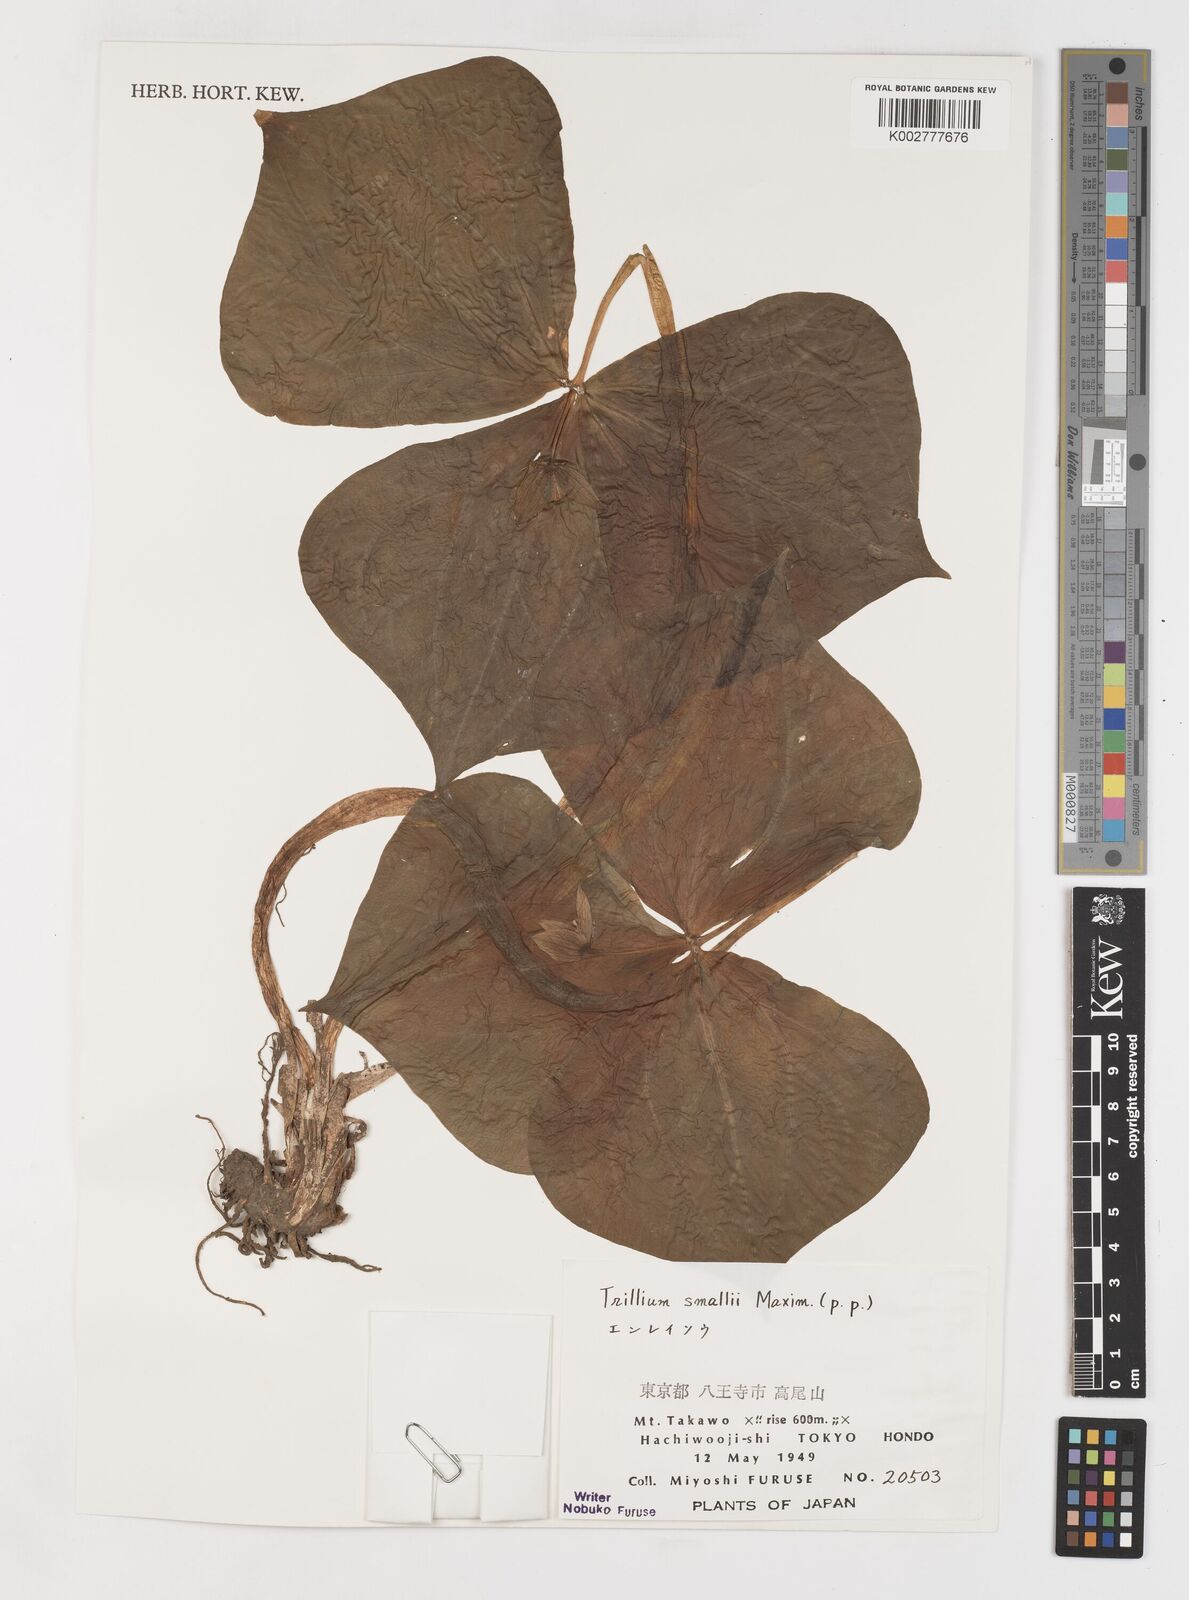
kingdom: Plantae
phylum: Tracheophyta
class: Liliopsida
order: Liliales
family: Melanthiaceae
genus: Trillium
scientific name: Trillium smallii
